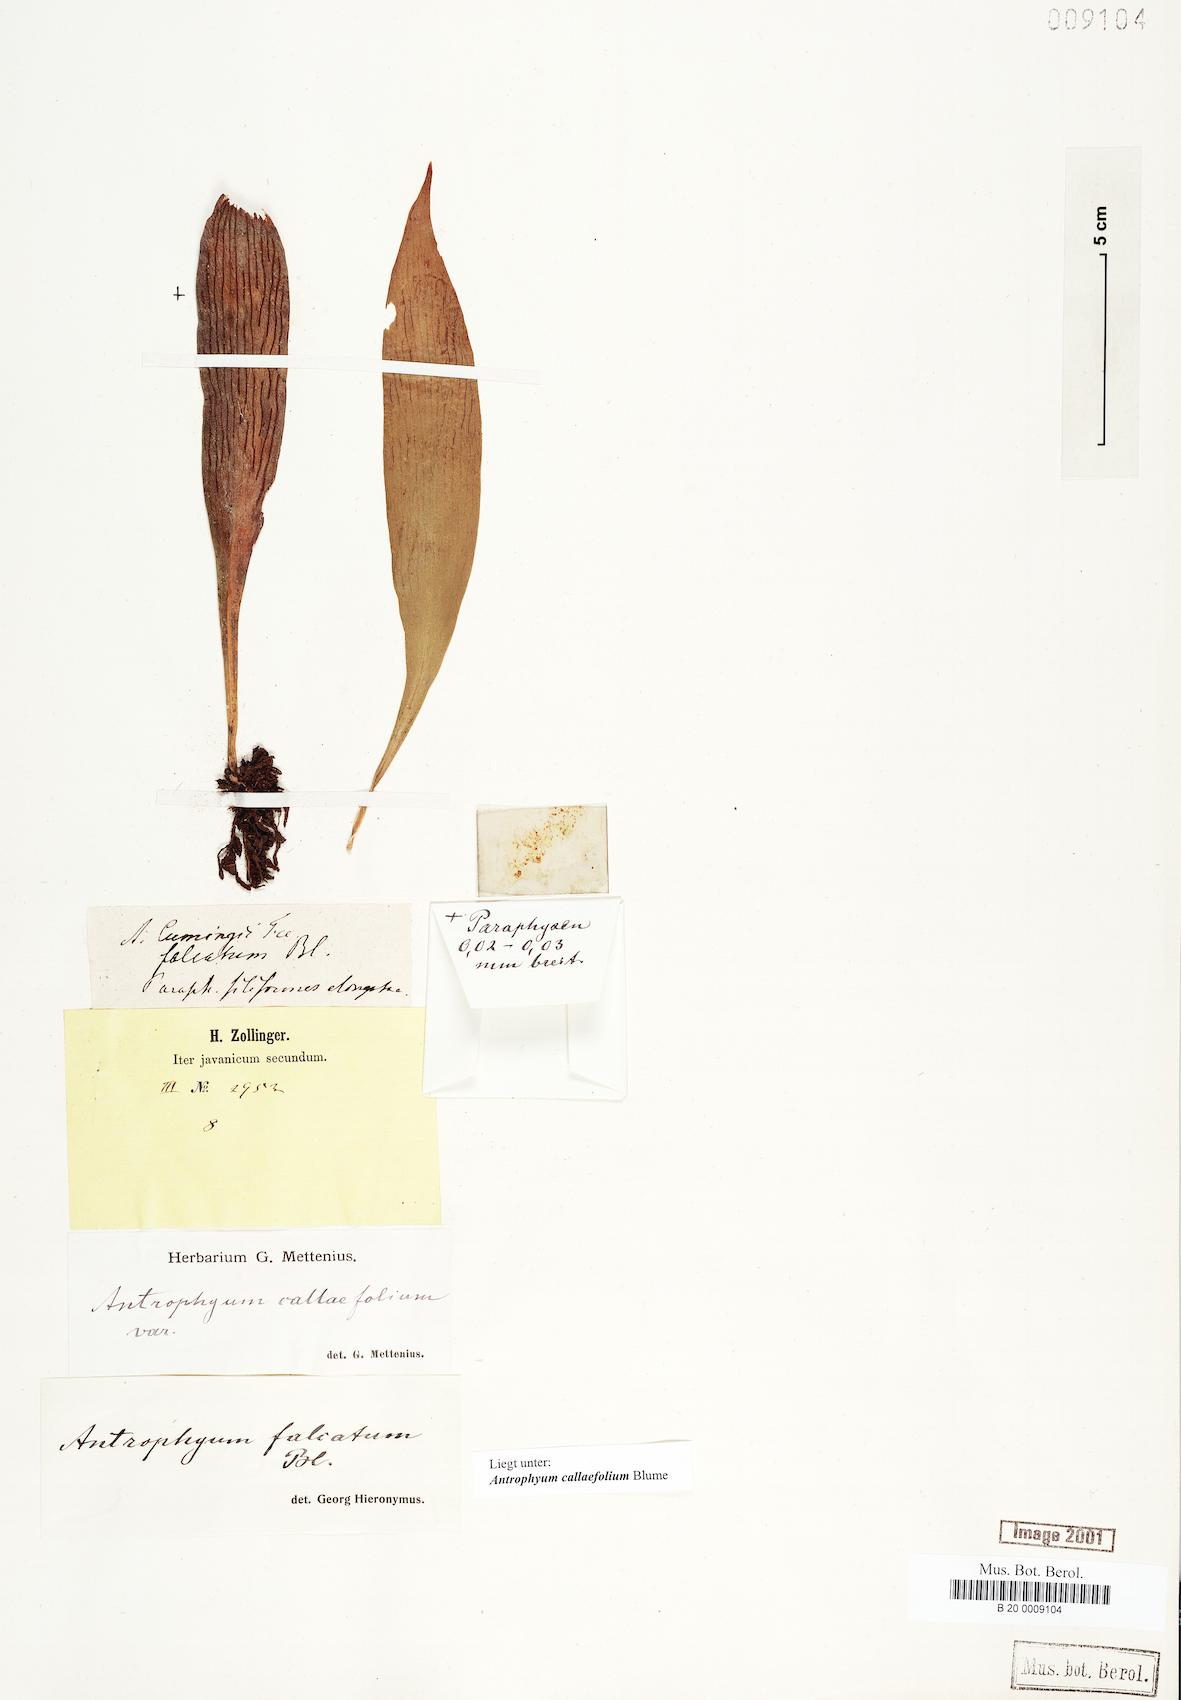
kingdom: Plantae
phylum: Tracheophyta
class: Polypodiopsida
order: Polypodiales
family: Pteridaceae
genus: Antrophyum
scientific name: Antrophyum callifolium
